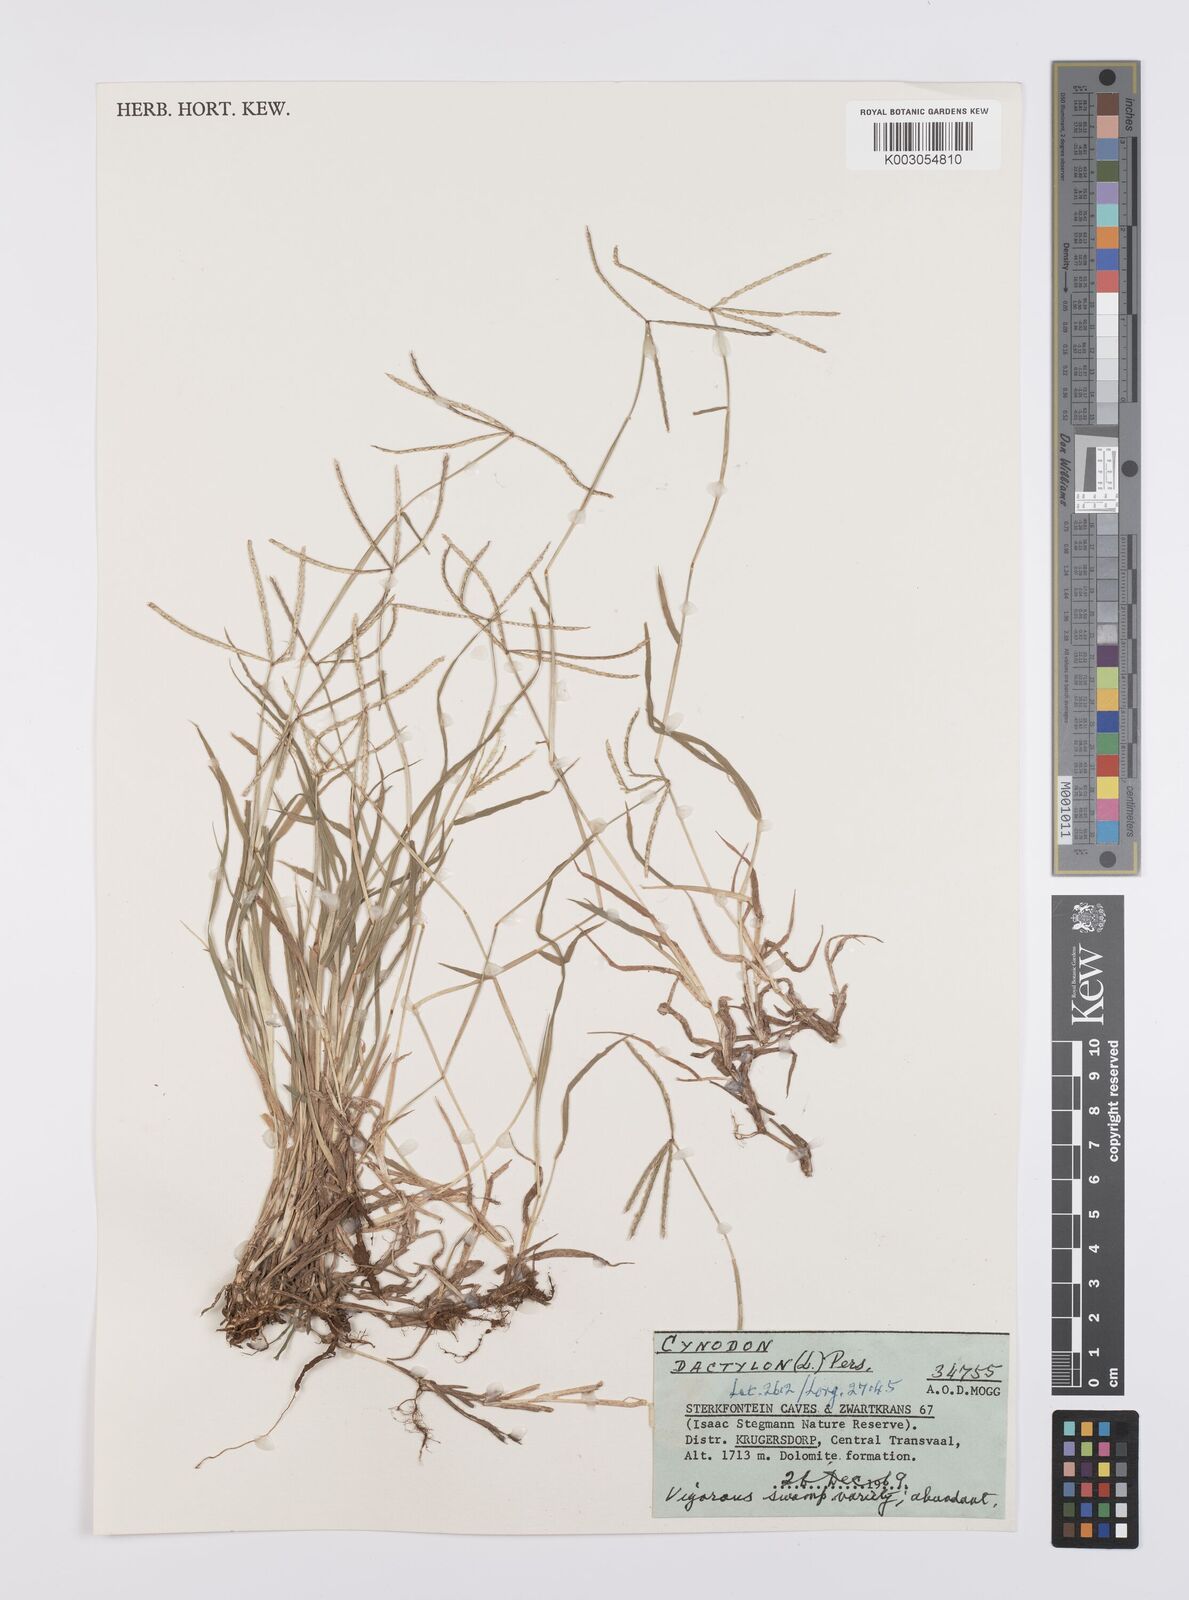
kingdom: Plantae
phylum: Tracheophyta
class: Liliopsida
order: Poales
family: Poaceae
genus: Cynodon
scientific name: Cynodon dactylon
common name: Bermuda grass
